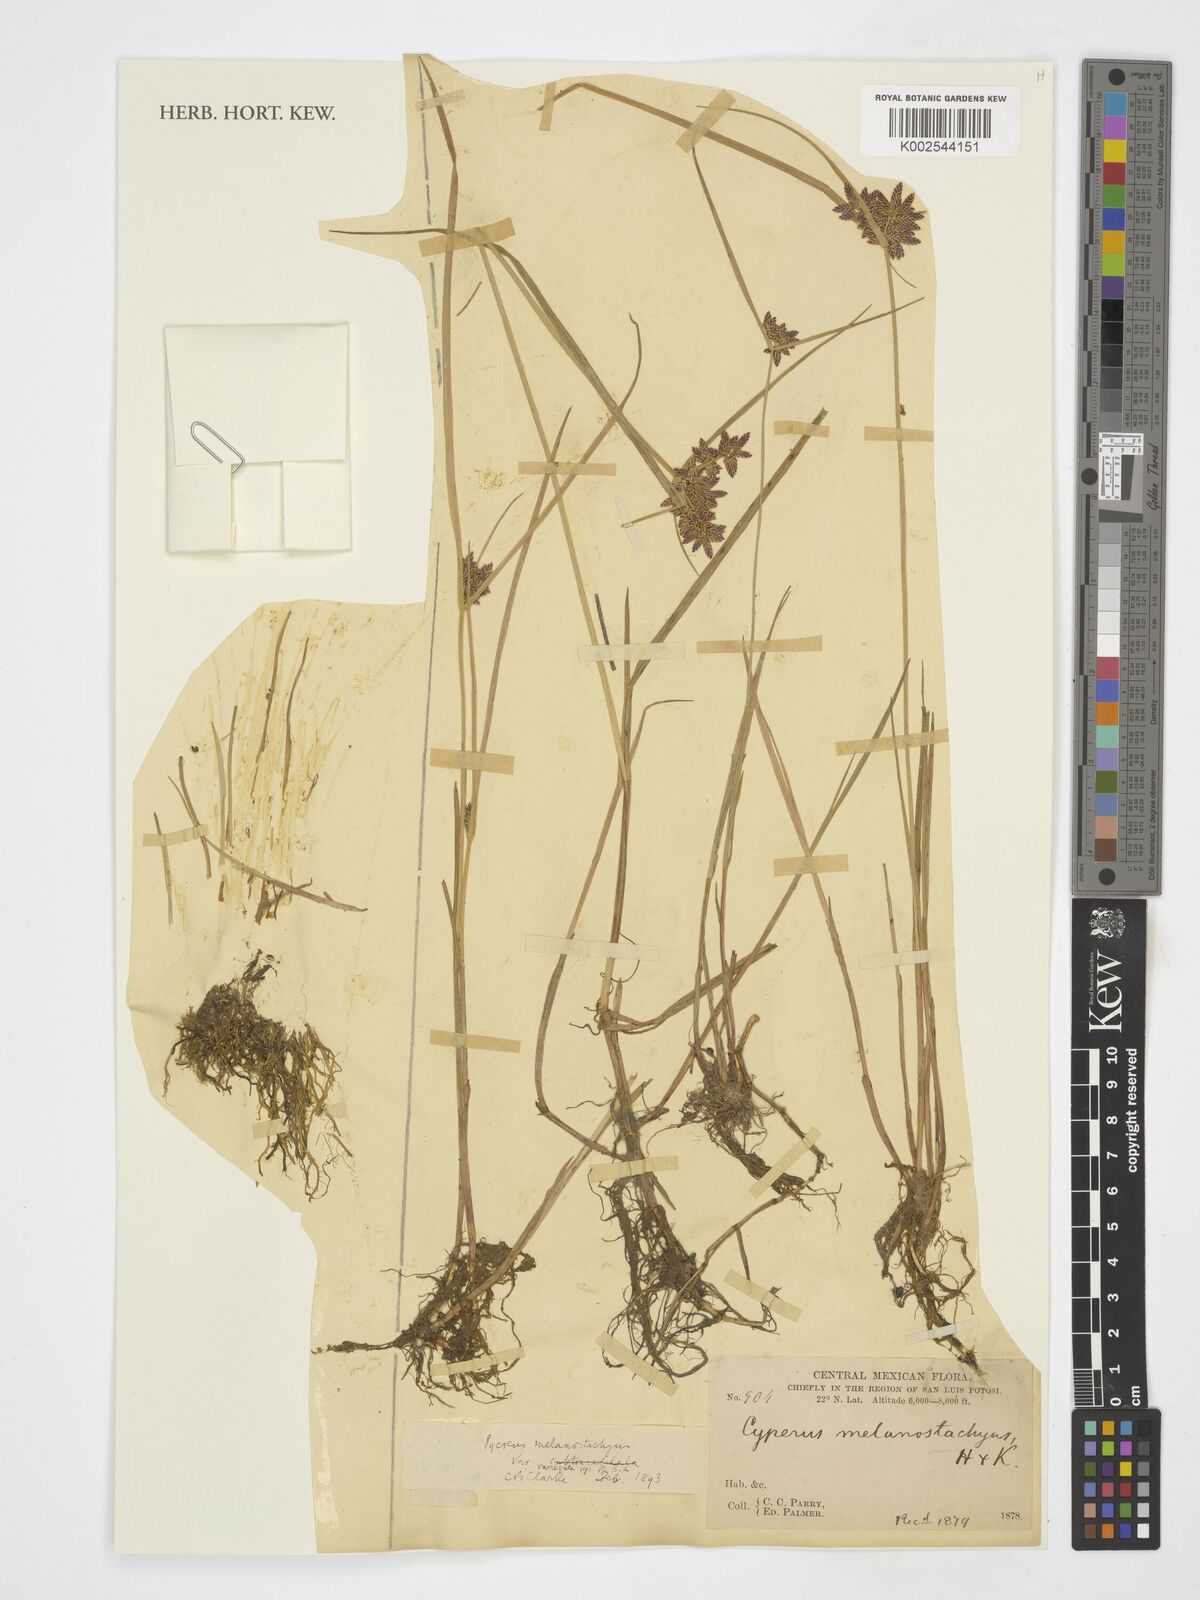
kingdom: Plantae
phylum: Tracheophyta
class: Liliopsida
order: Poales
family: Cyperaceae
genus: Cyperus
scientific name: Cyperus
